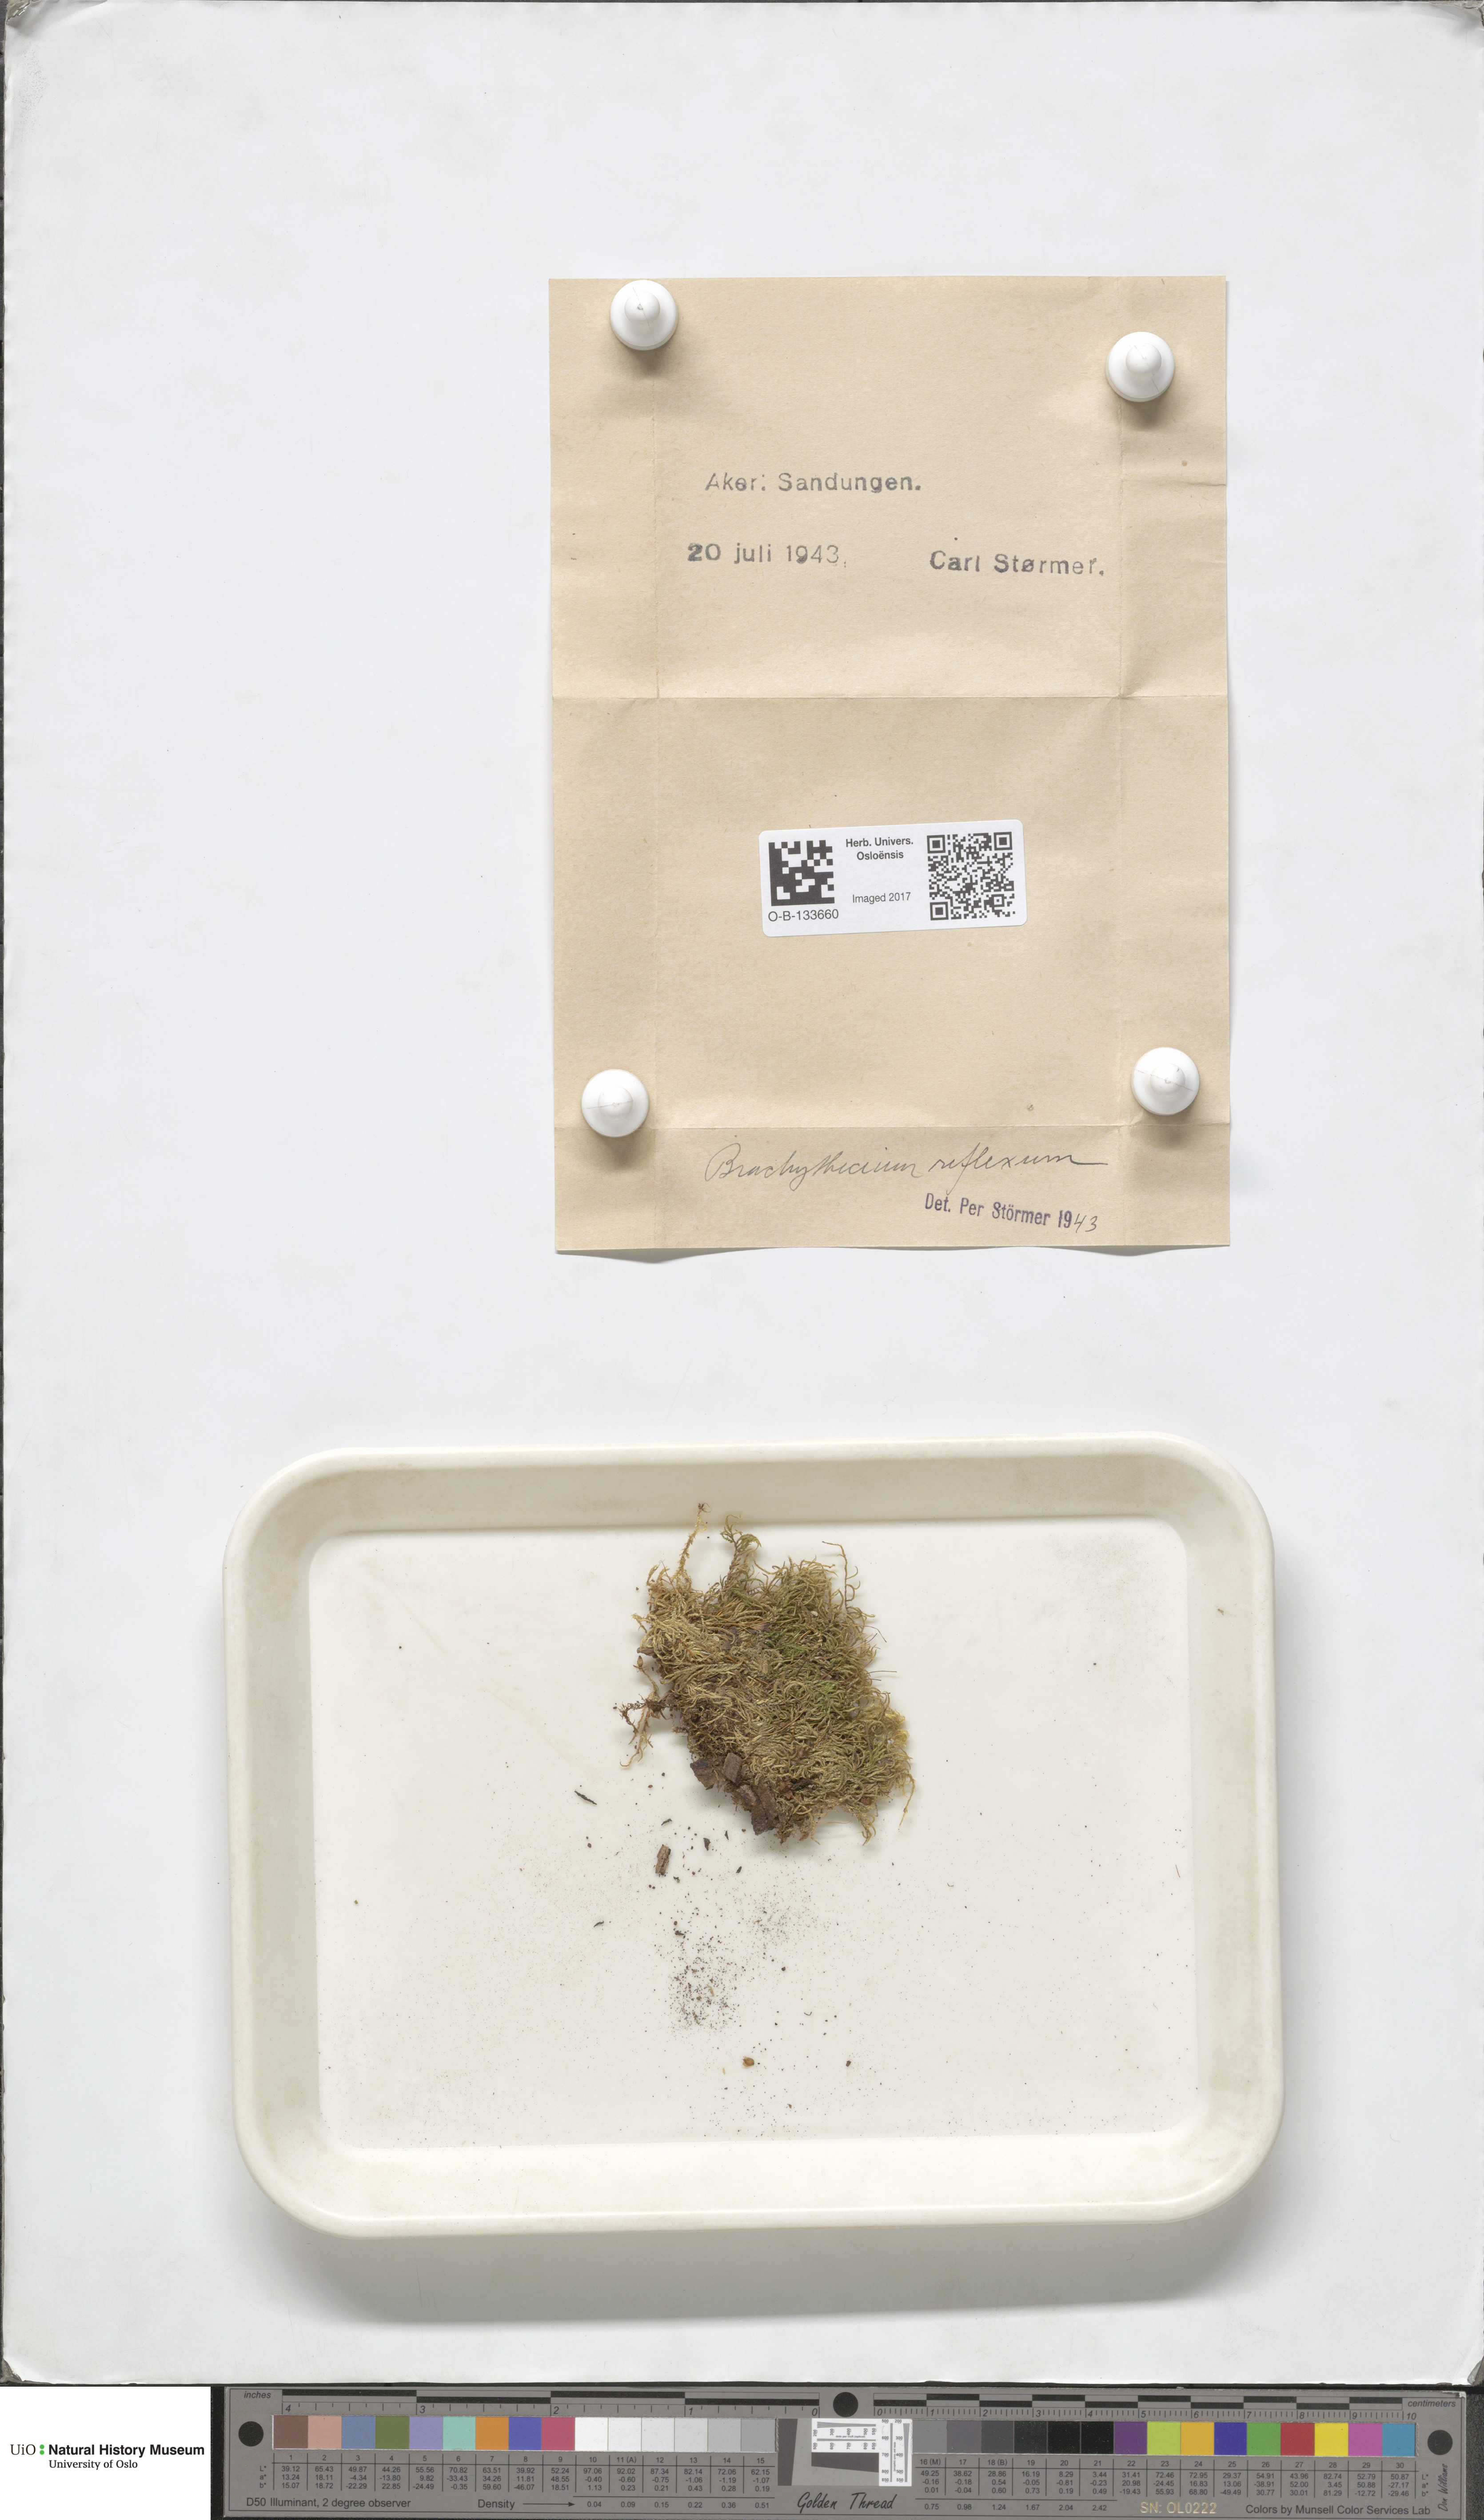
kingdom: Plantae
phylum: Bryophyta
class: Bryopsida
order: Hypnales
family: Brachytheciaceae
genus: Sciuro-hypnum
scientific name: Sciuro-hypnum reflexum
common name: Reflexed feather-moss
